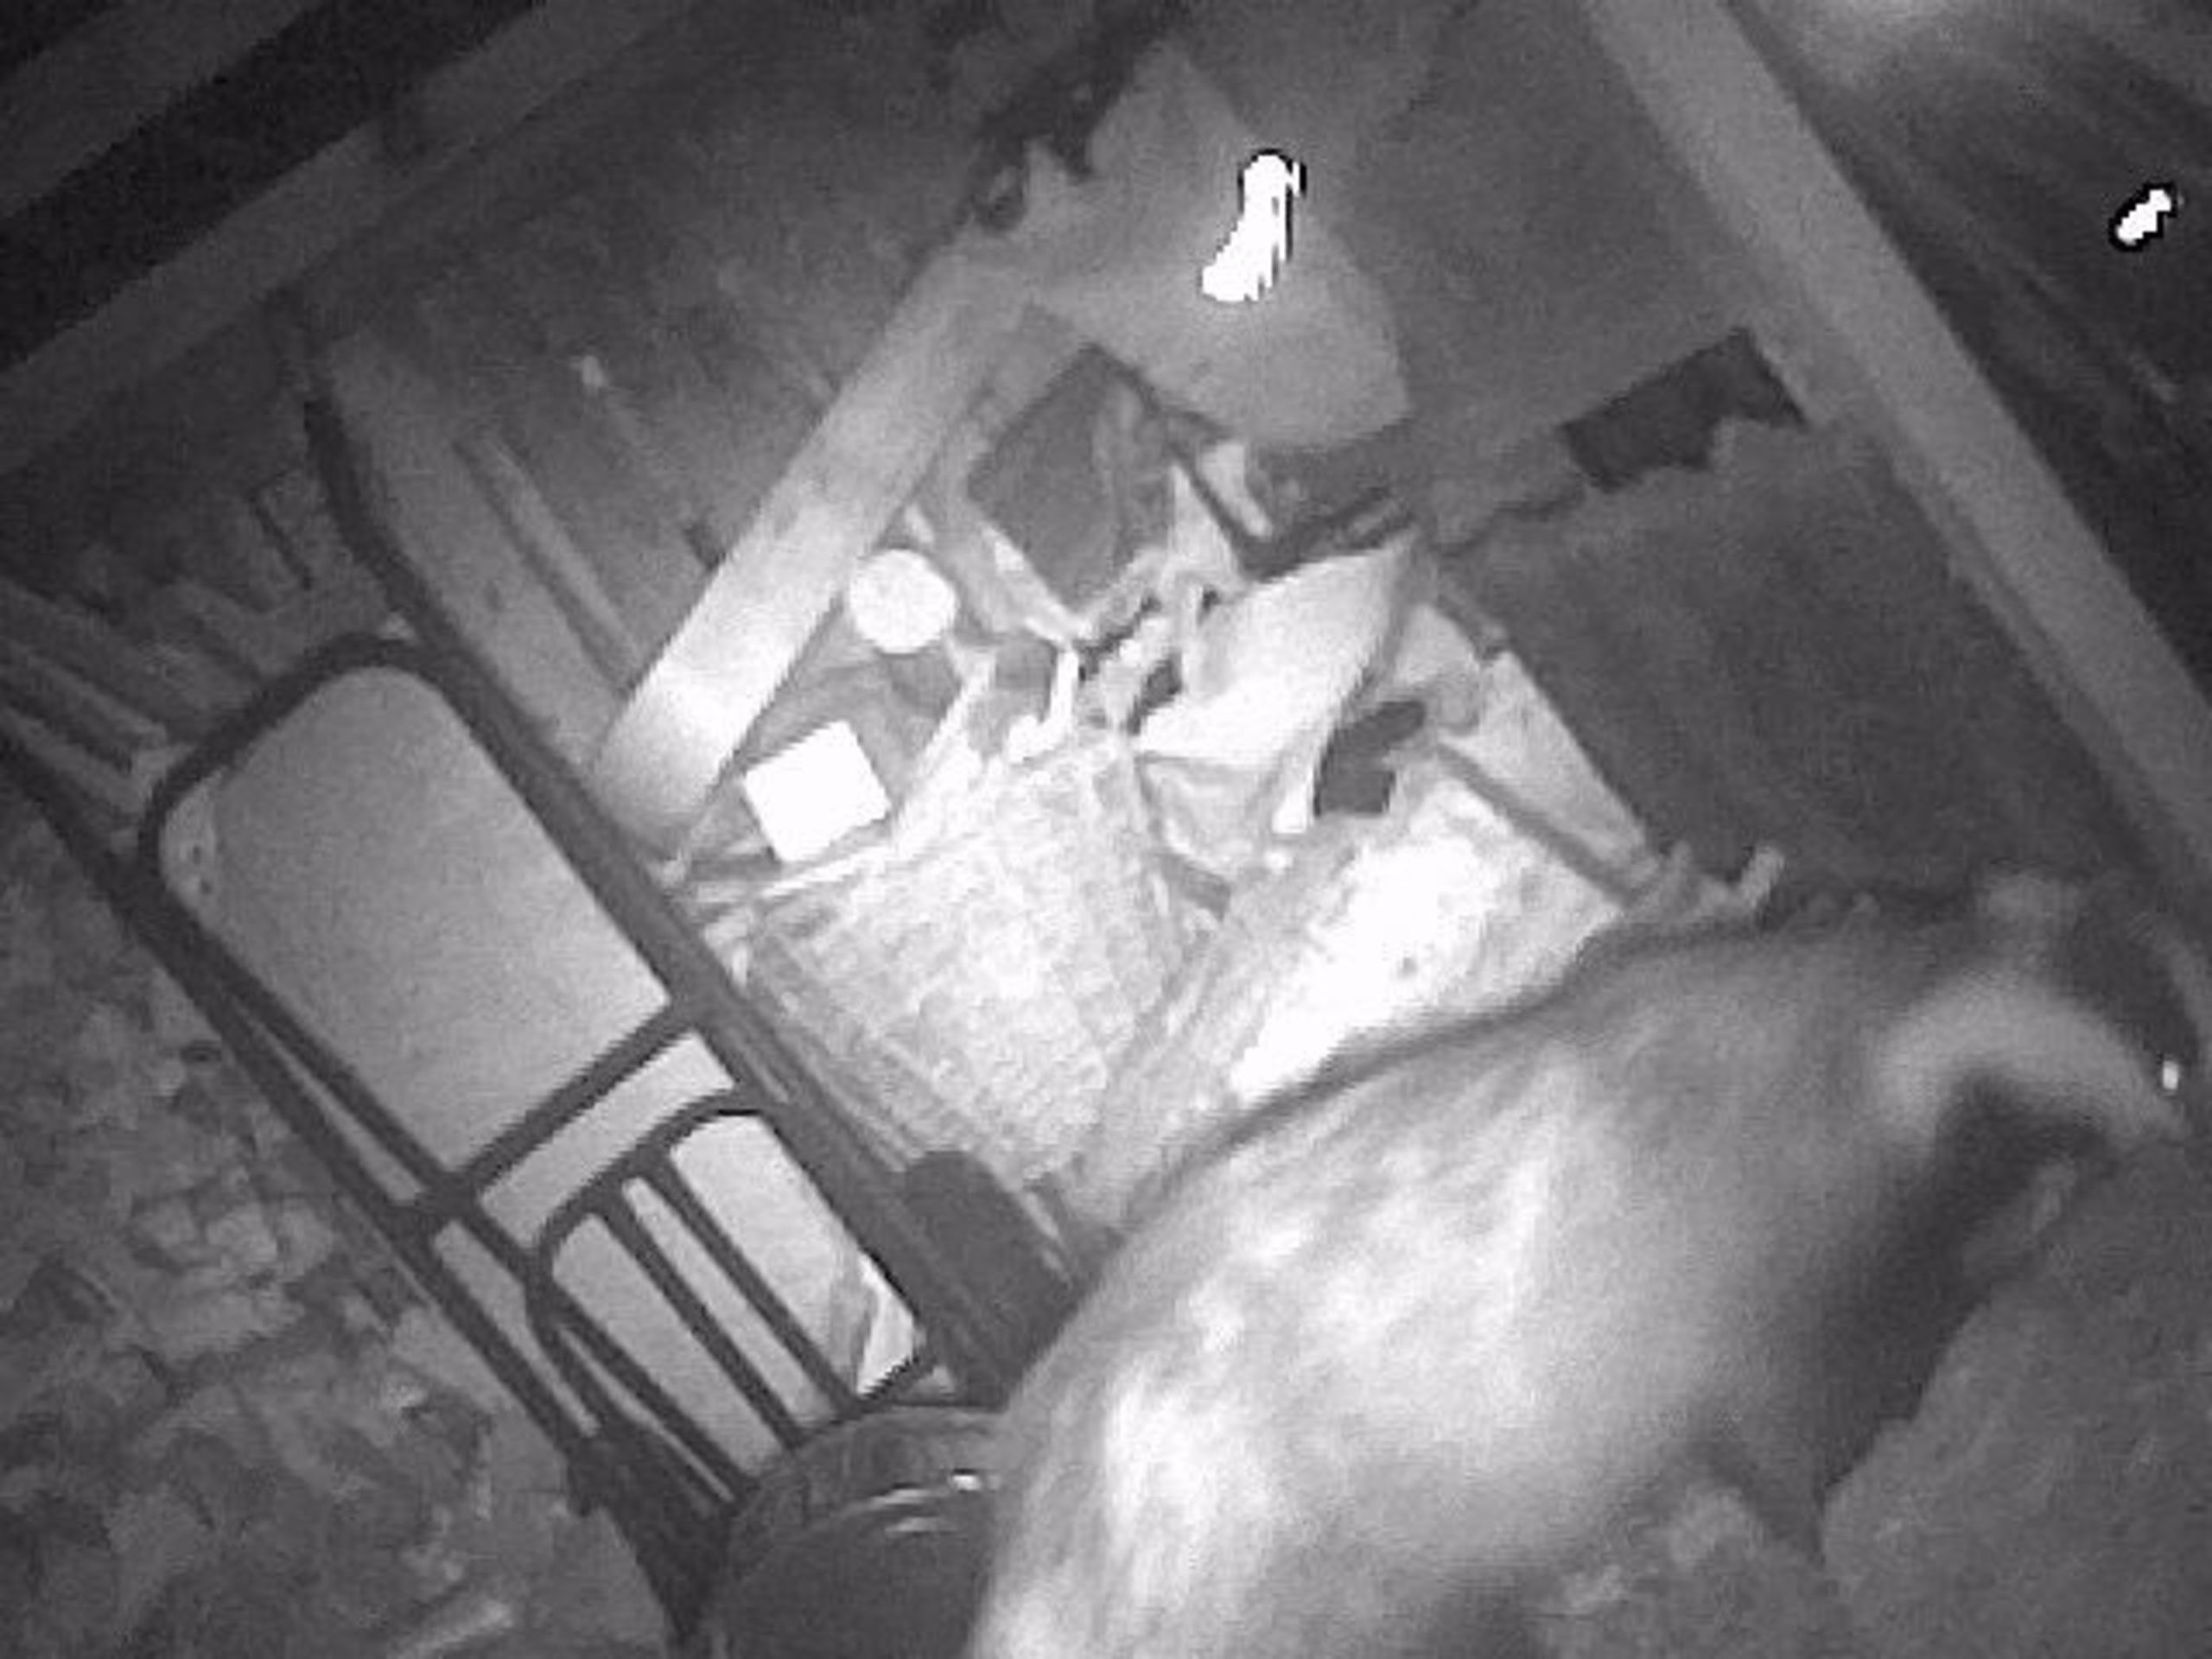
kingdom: Animalia
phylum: Chordata
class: Mammalia
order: Carnivora
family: Mustelidae
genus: Meles
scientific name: Meles meles
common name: Grævling
